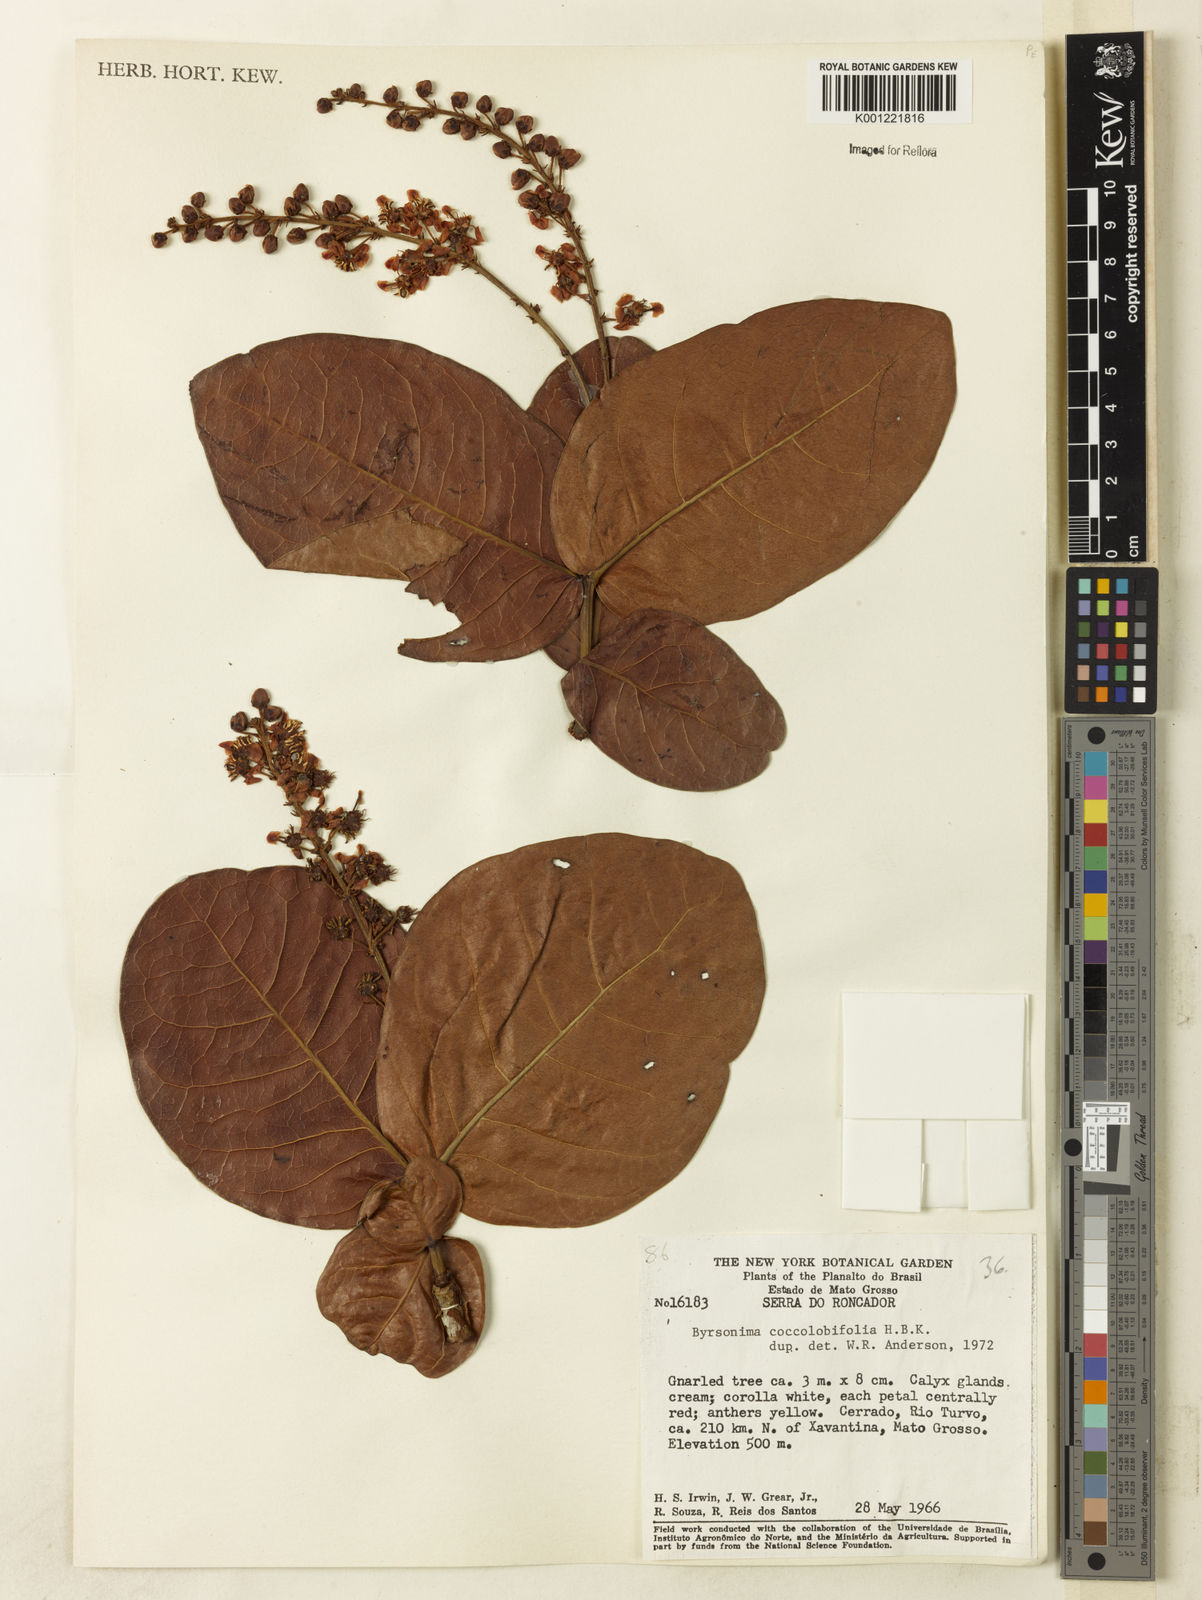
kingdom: Plantae
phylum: Tracheophyta
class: Magnoliopsida
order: Malpighiales
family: Malpighiaceae
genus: Byrsonima
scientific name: Byrsonima coccolobifolia
